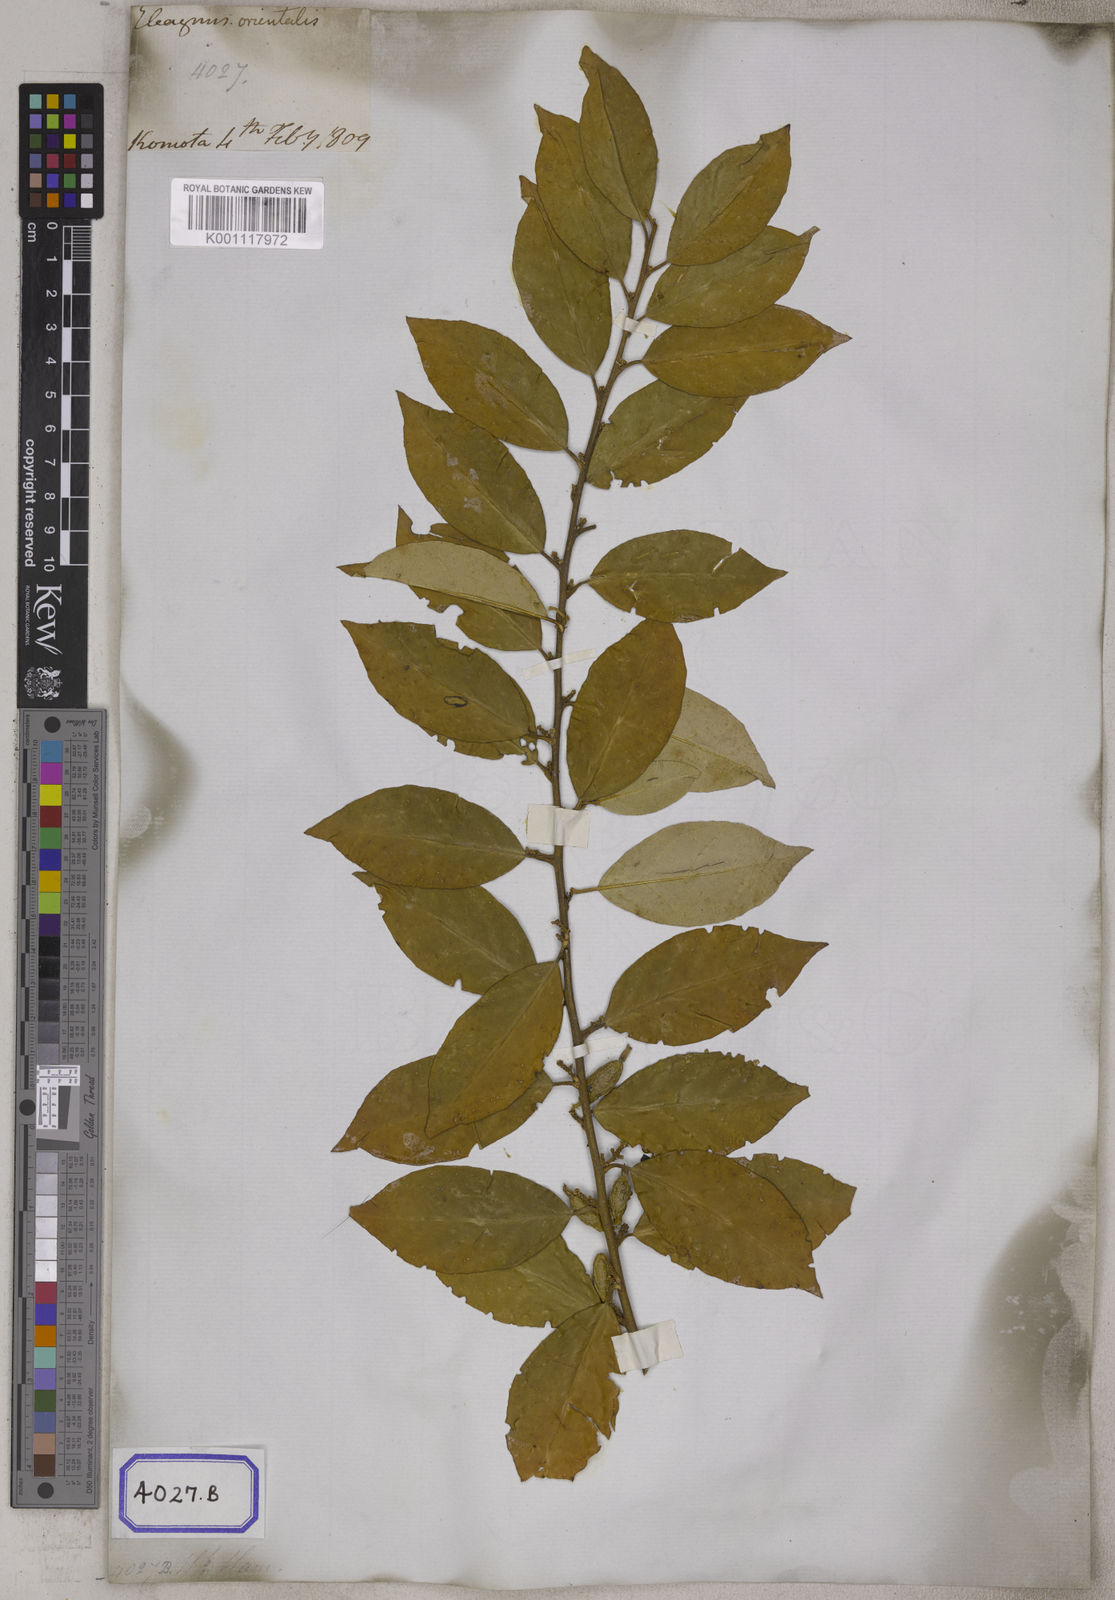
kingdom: Plantae
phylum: Tracheophyta
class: Magnoliopsida
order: Rosales
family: Elaeagnaceae
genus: Elaeagnus
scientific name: Elaeagnus conferta
